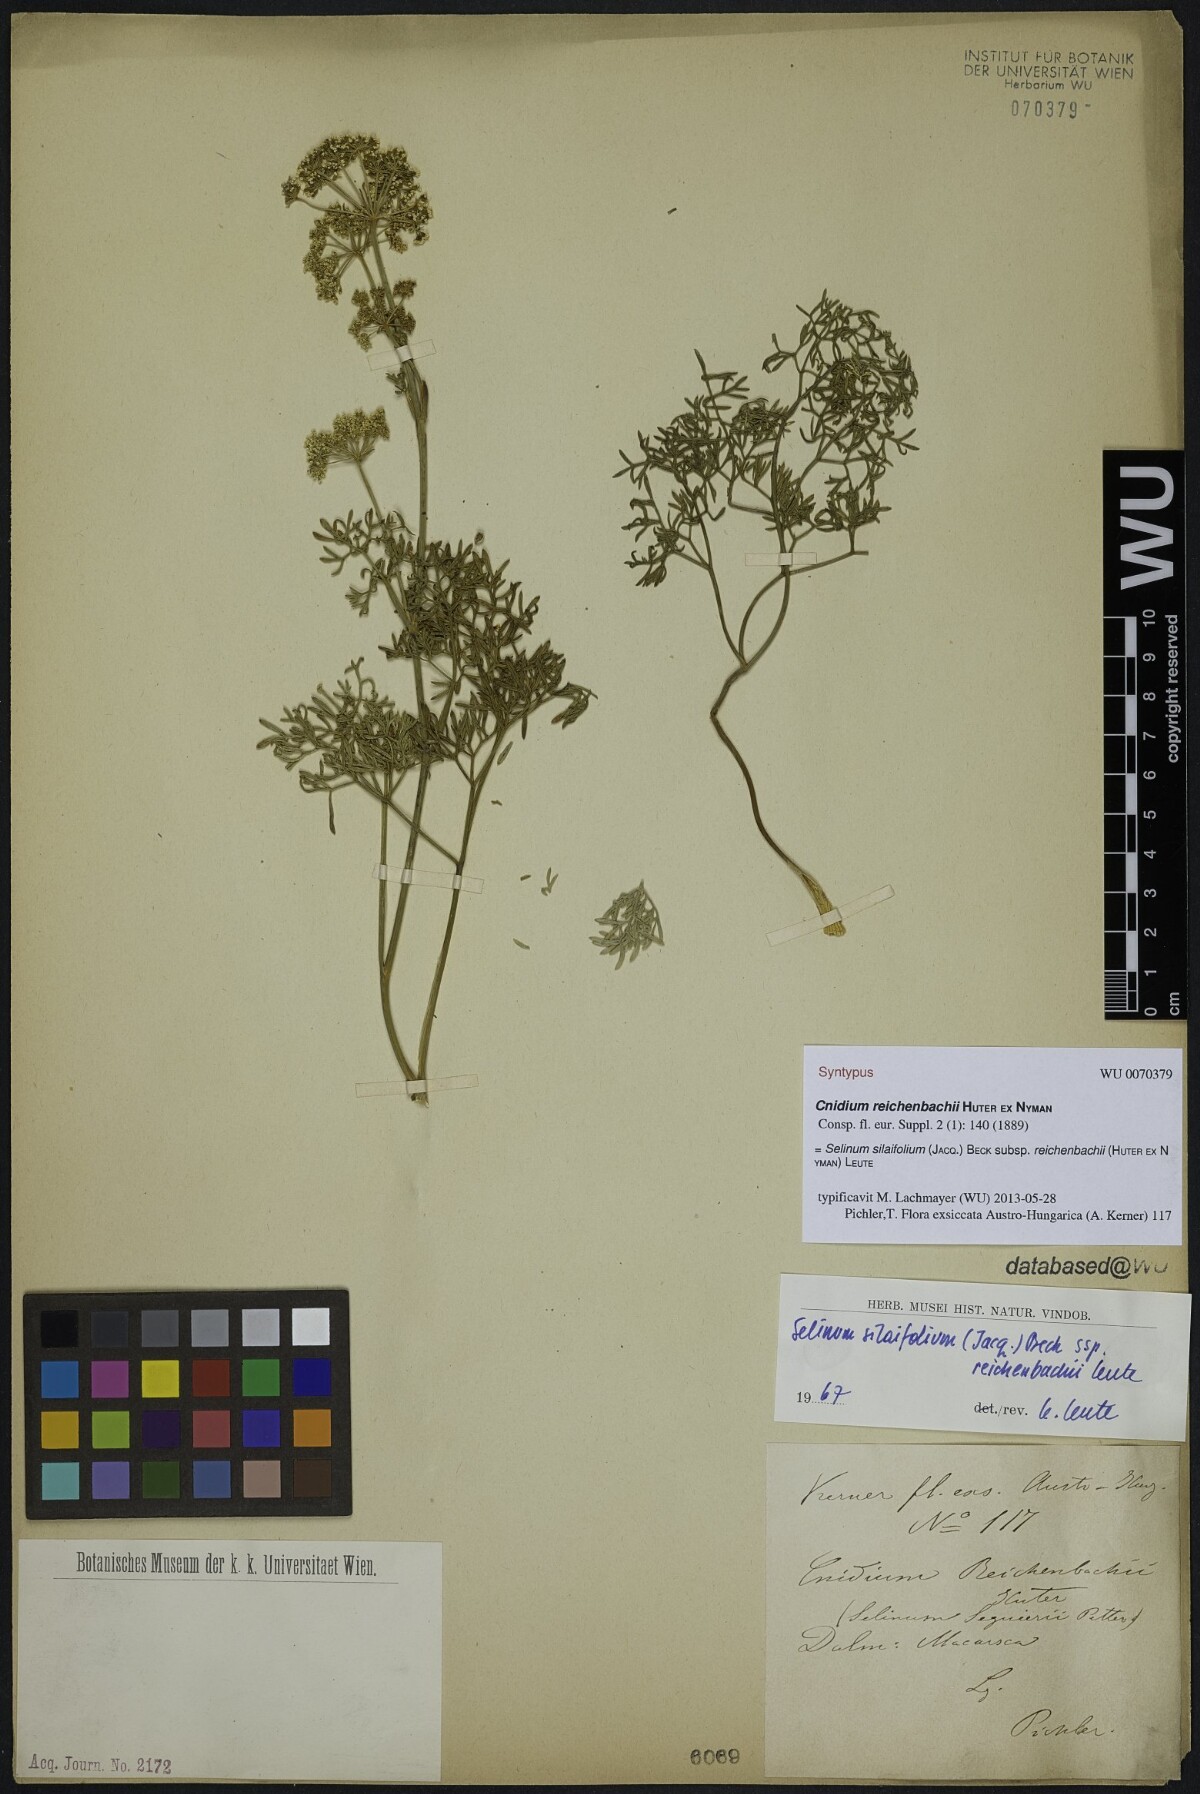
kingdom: Plantae
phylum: Tracheophyta
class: Magnoliopsida
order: Apiales
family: Apiaceae
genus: Cnidium
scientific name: Cnidium reichenbachii
